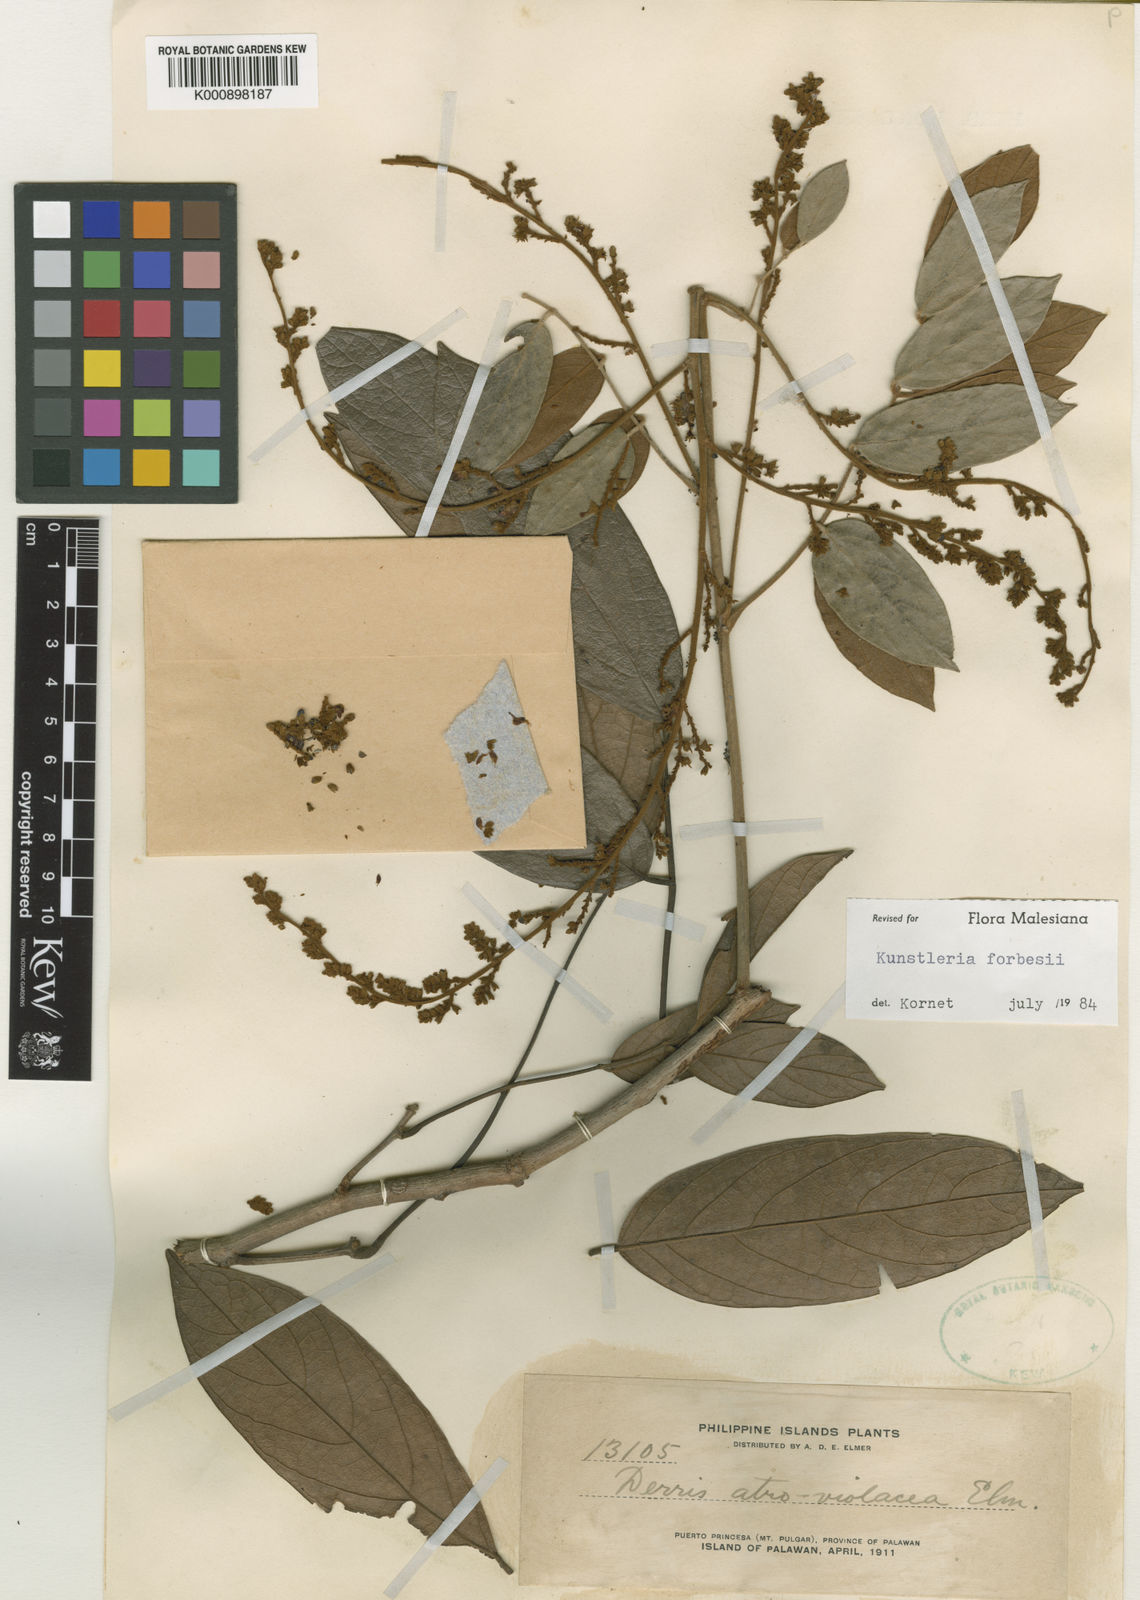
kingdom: Plantae
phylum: Tracheophyta
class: Magnoliopsida
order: Fabales
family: Fabaceae
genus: Kunstleria
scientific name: Kunstleria forbesii
